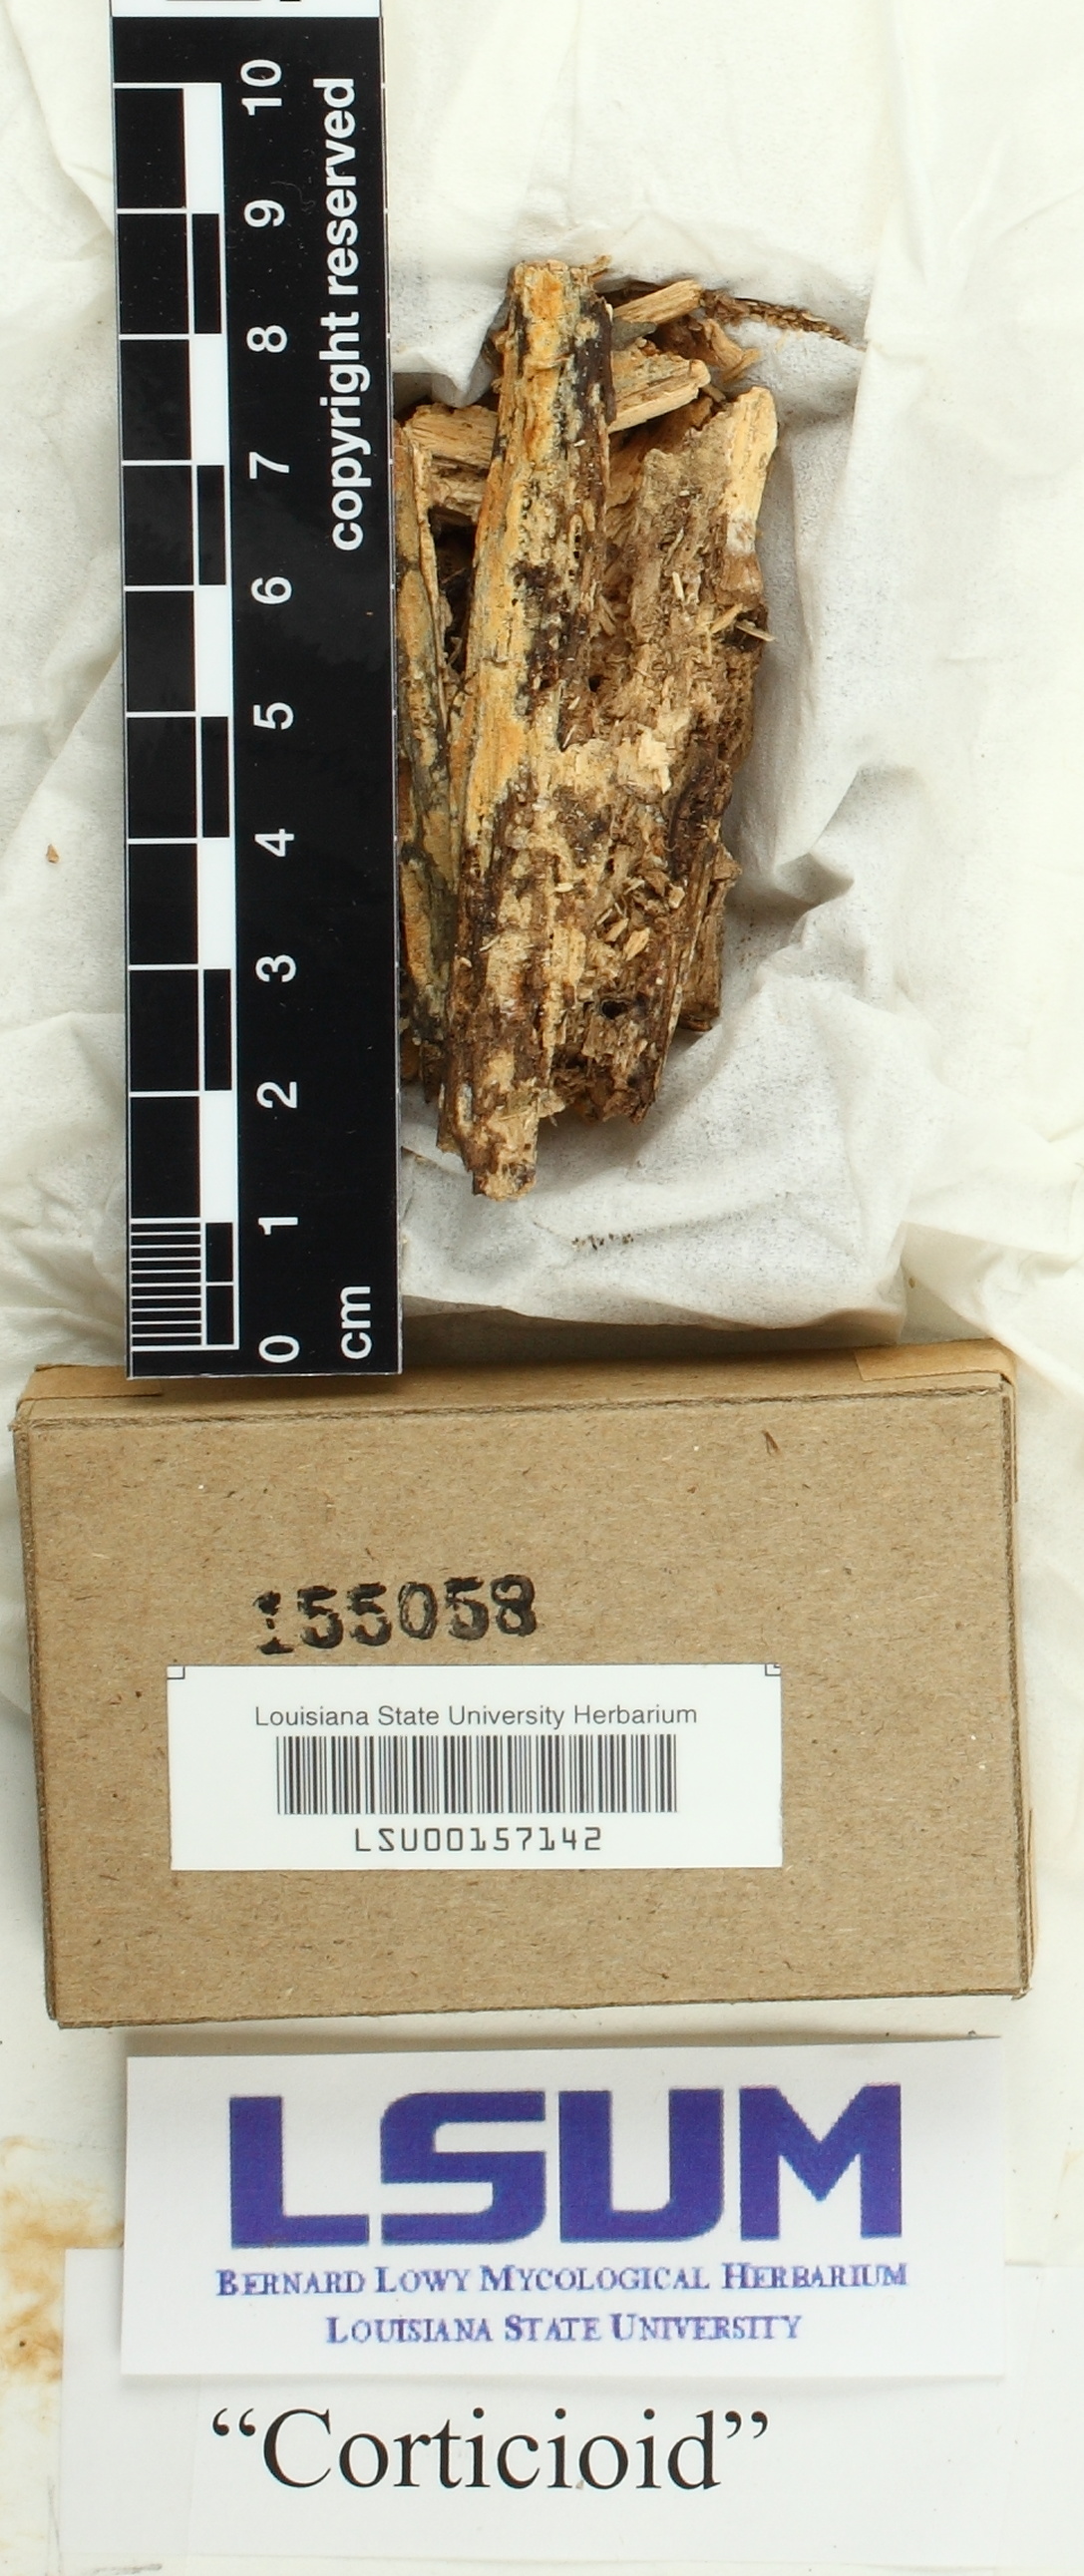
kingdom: Fungi
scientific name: Fungi
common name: Fungi
